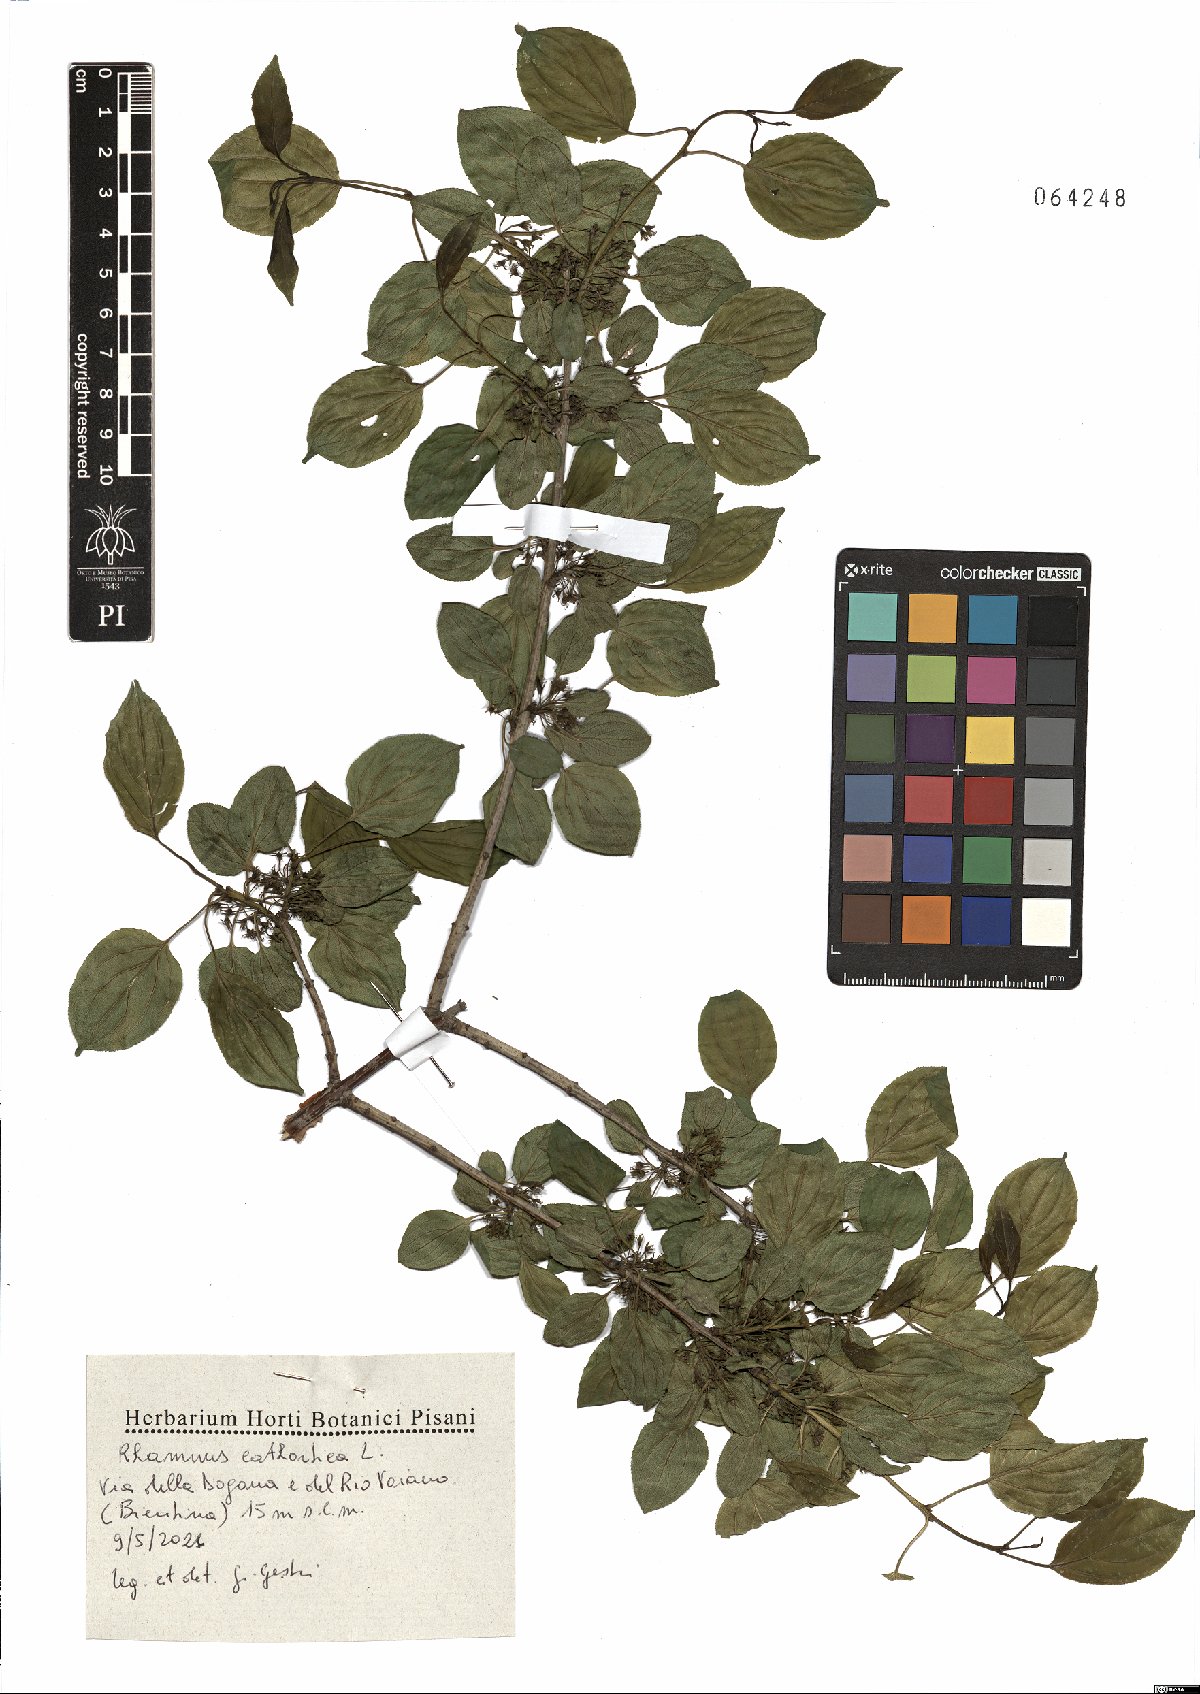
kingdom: Plantae
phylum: Tracheophyta
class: Magnoliopsida
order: Rosales
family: Rhamnaceae
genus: Rhamnus
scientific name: Rhamnus cathartica
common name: Common buckthorn
